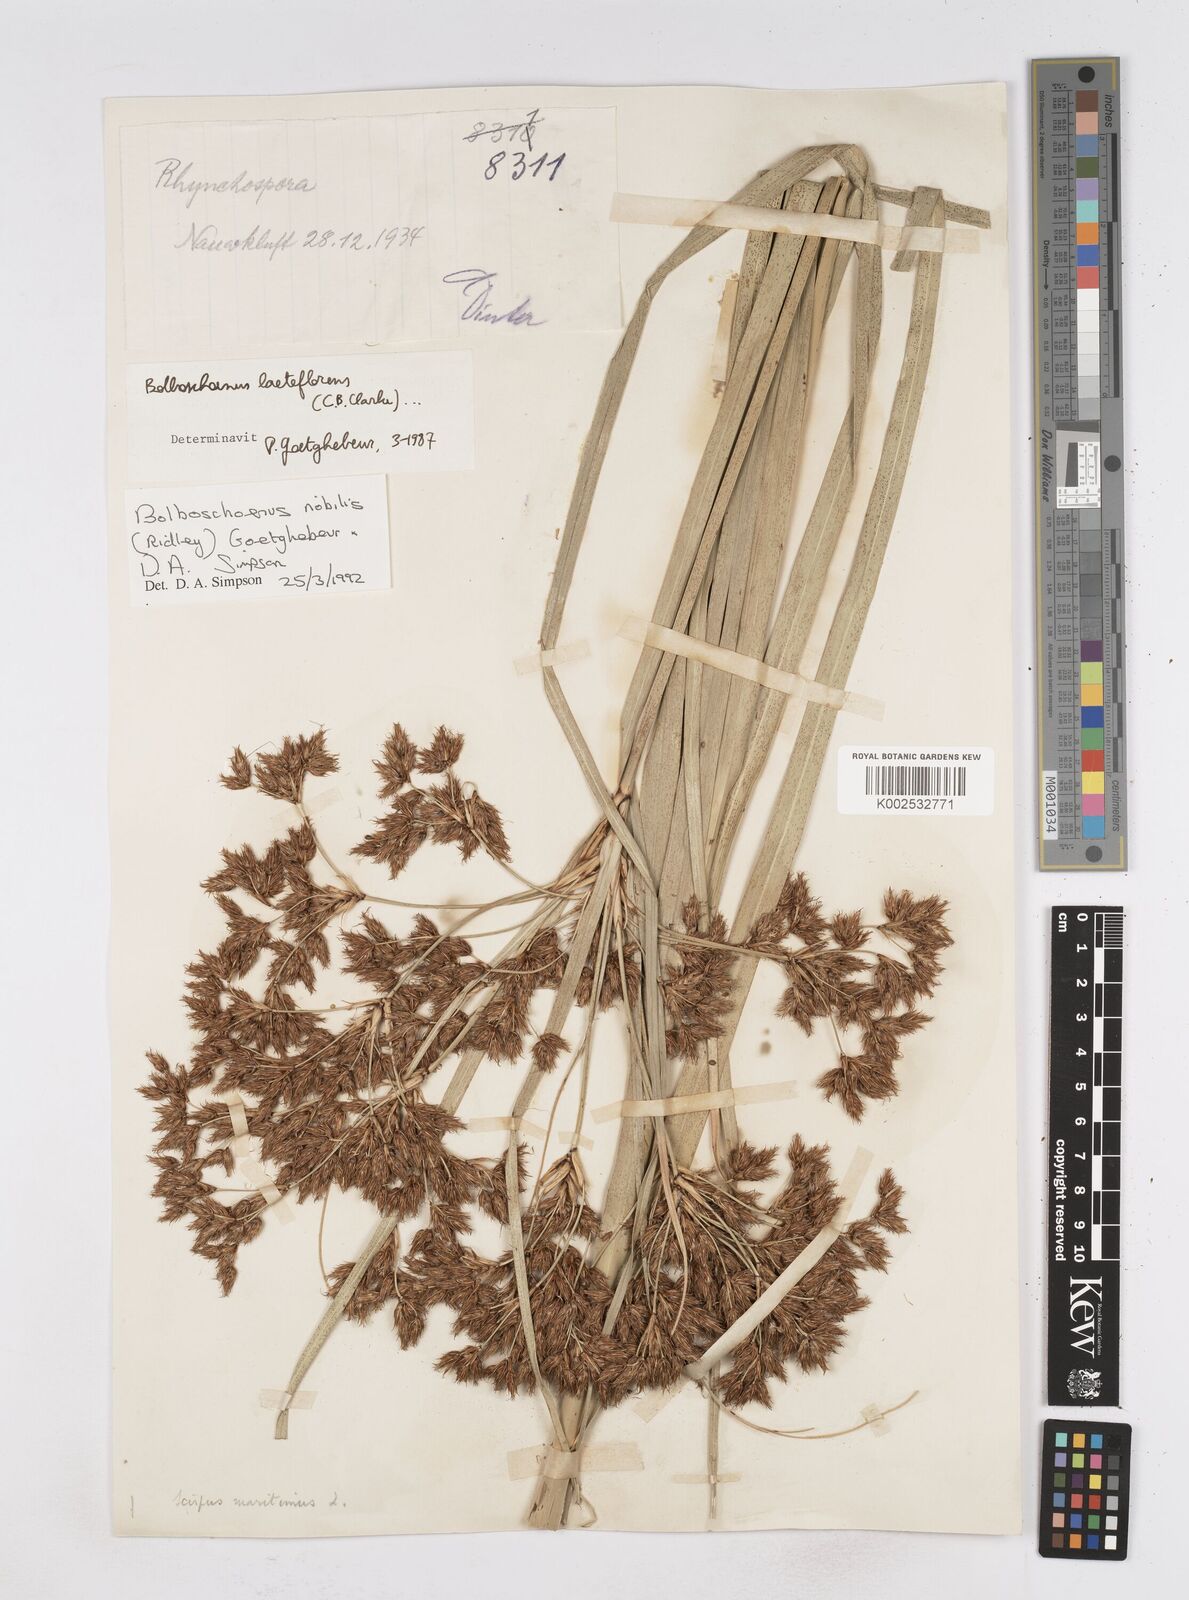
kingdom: Plantae
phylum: Tracheophyta
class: Liliopsida
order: Poales
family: Cyperaceae
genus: Bolboschoenus
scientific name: Bolboschoenus nobilis
